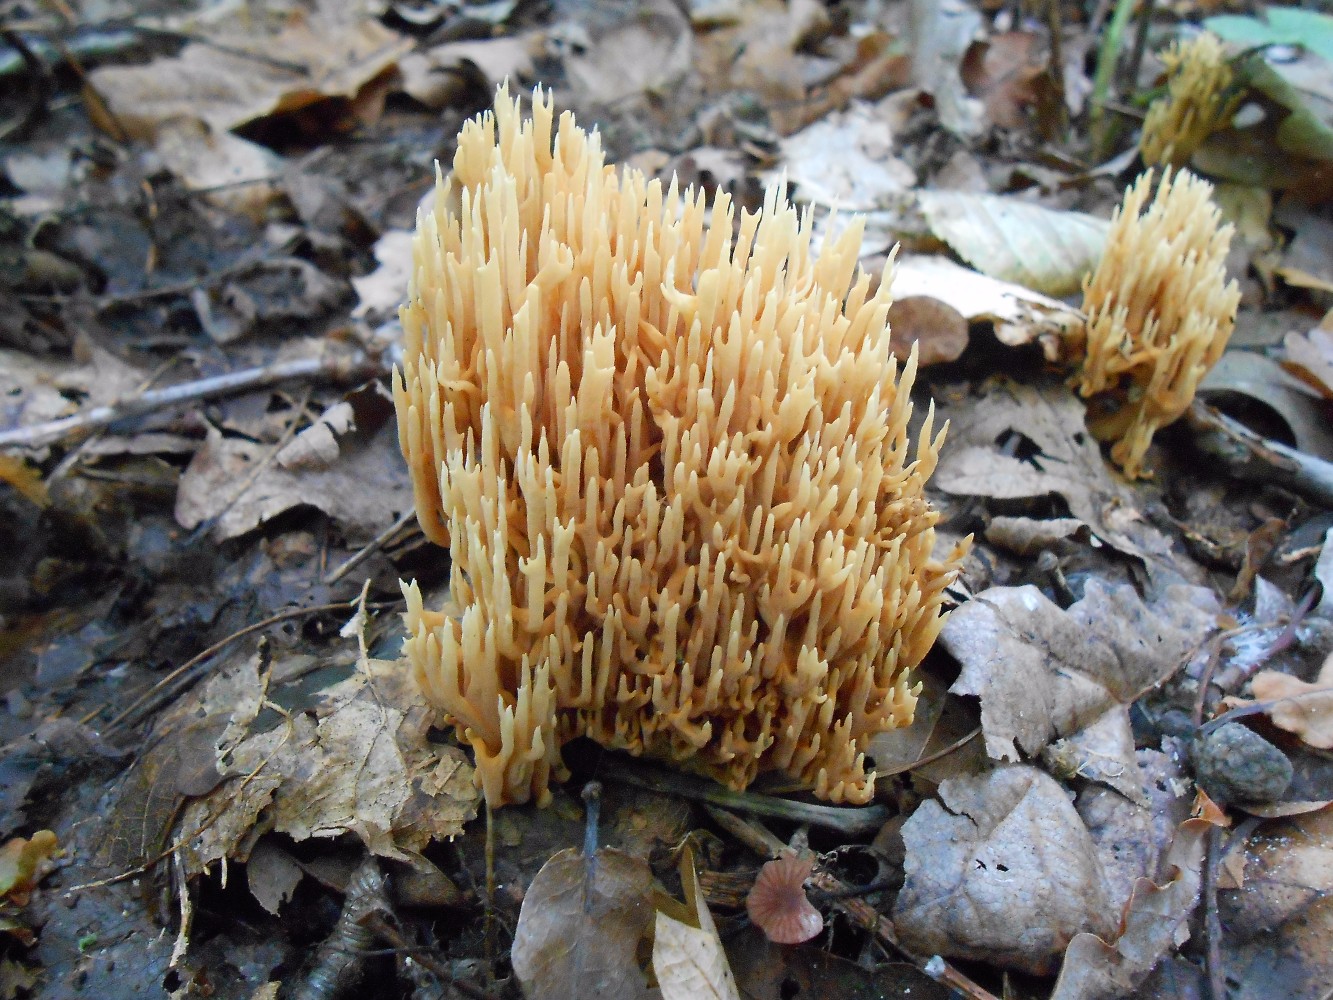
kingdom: Fungi
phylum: Basidiomycota
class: Agaricomycetes
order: Gomphales
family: Gomphaceae
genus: Ramaria
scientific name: Ramaria stricta
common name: rank koralsvamp
